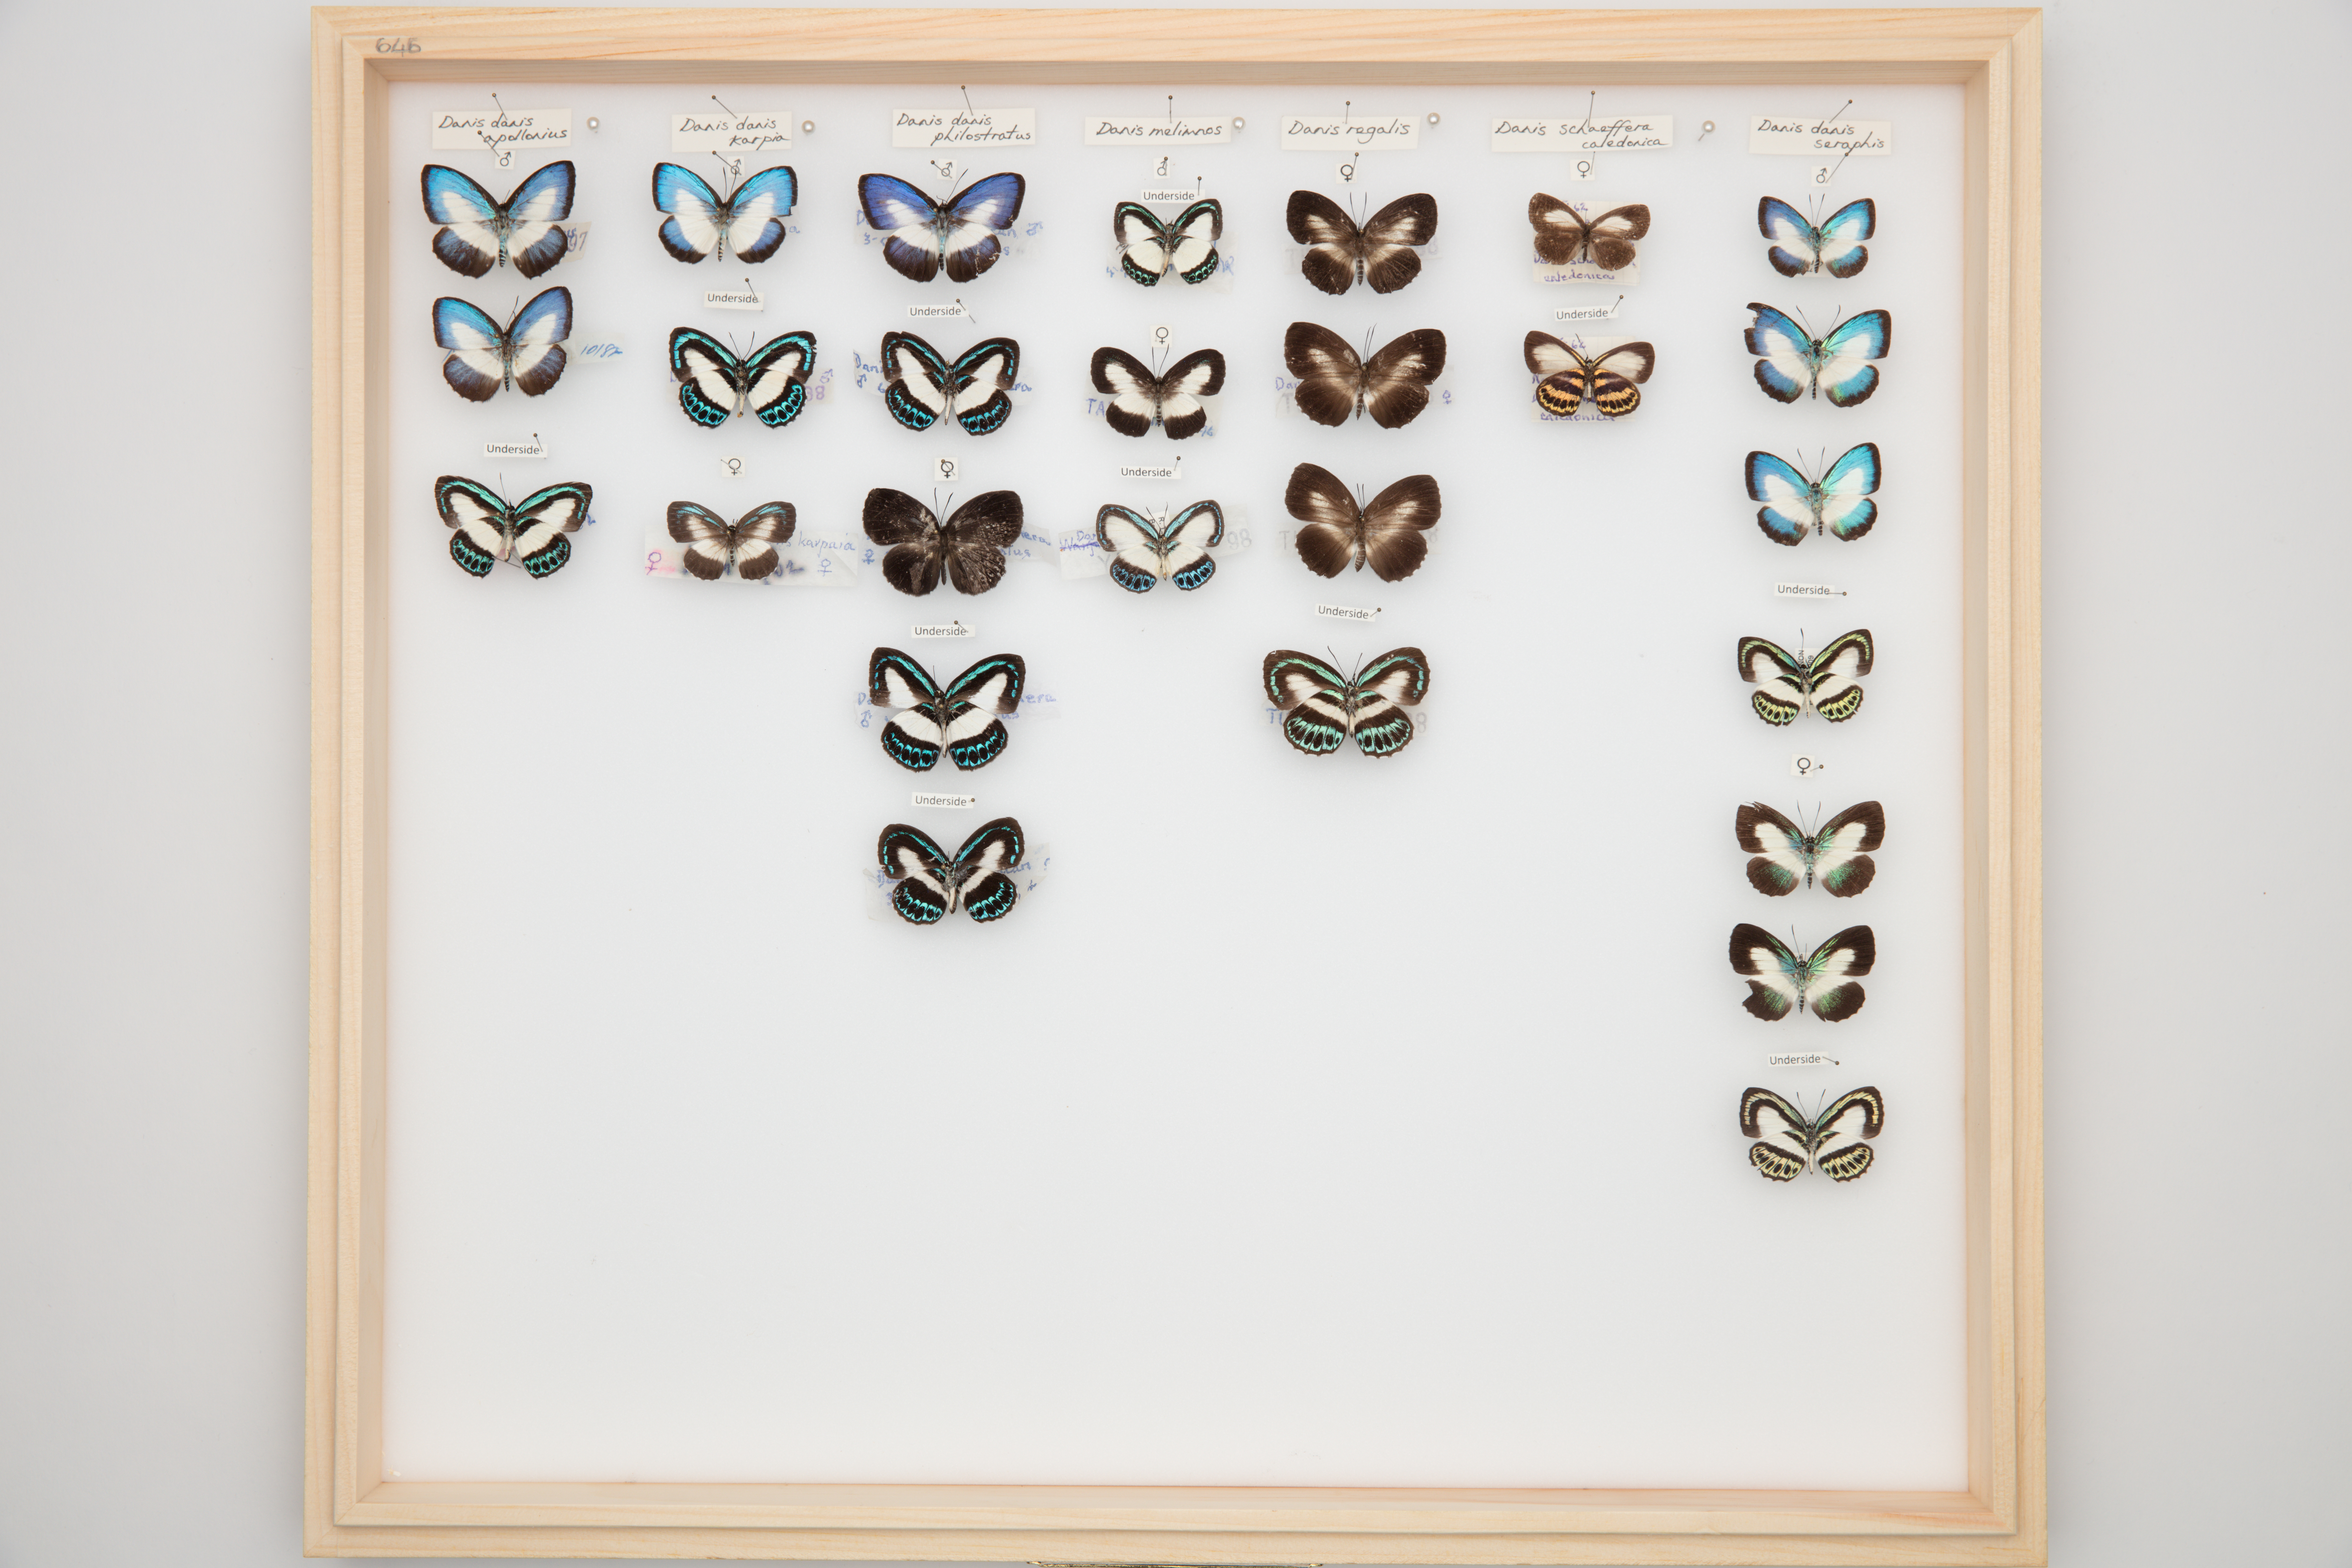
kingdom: Animalia
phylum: Arthropoda
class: Insecta
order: Lepidoptera
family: Lycaenidae
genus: Danis
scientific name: Danis danis
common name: Large green-banded blue
